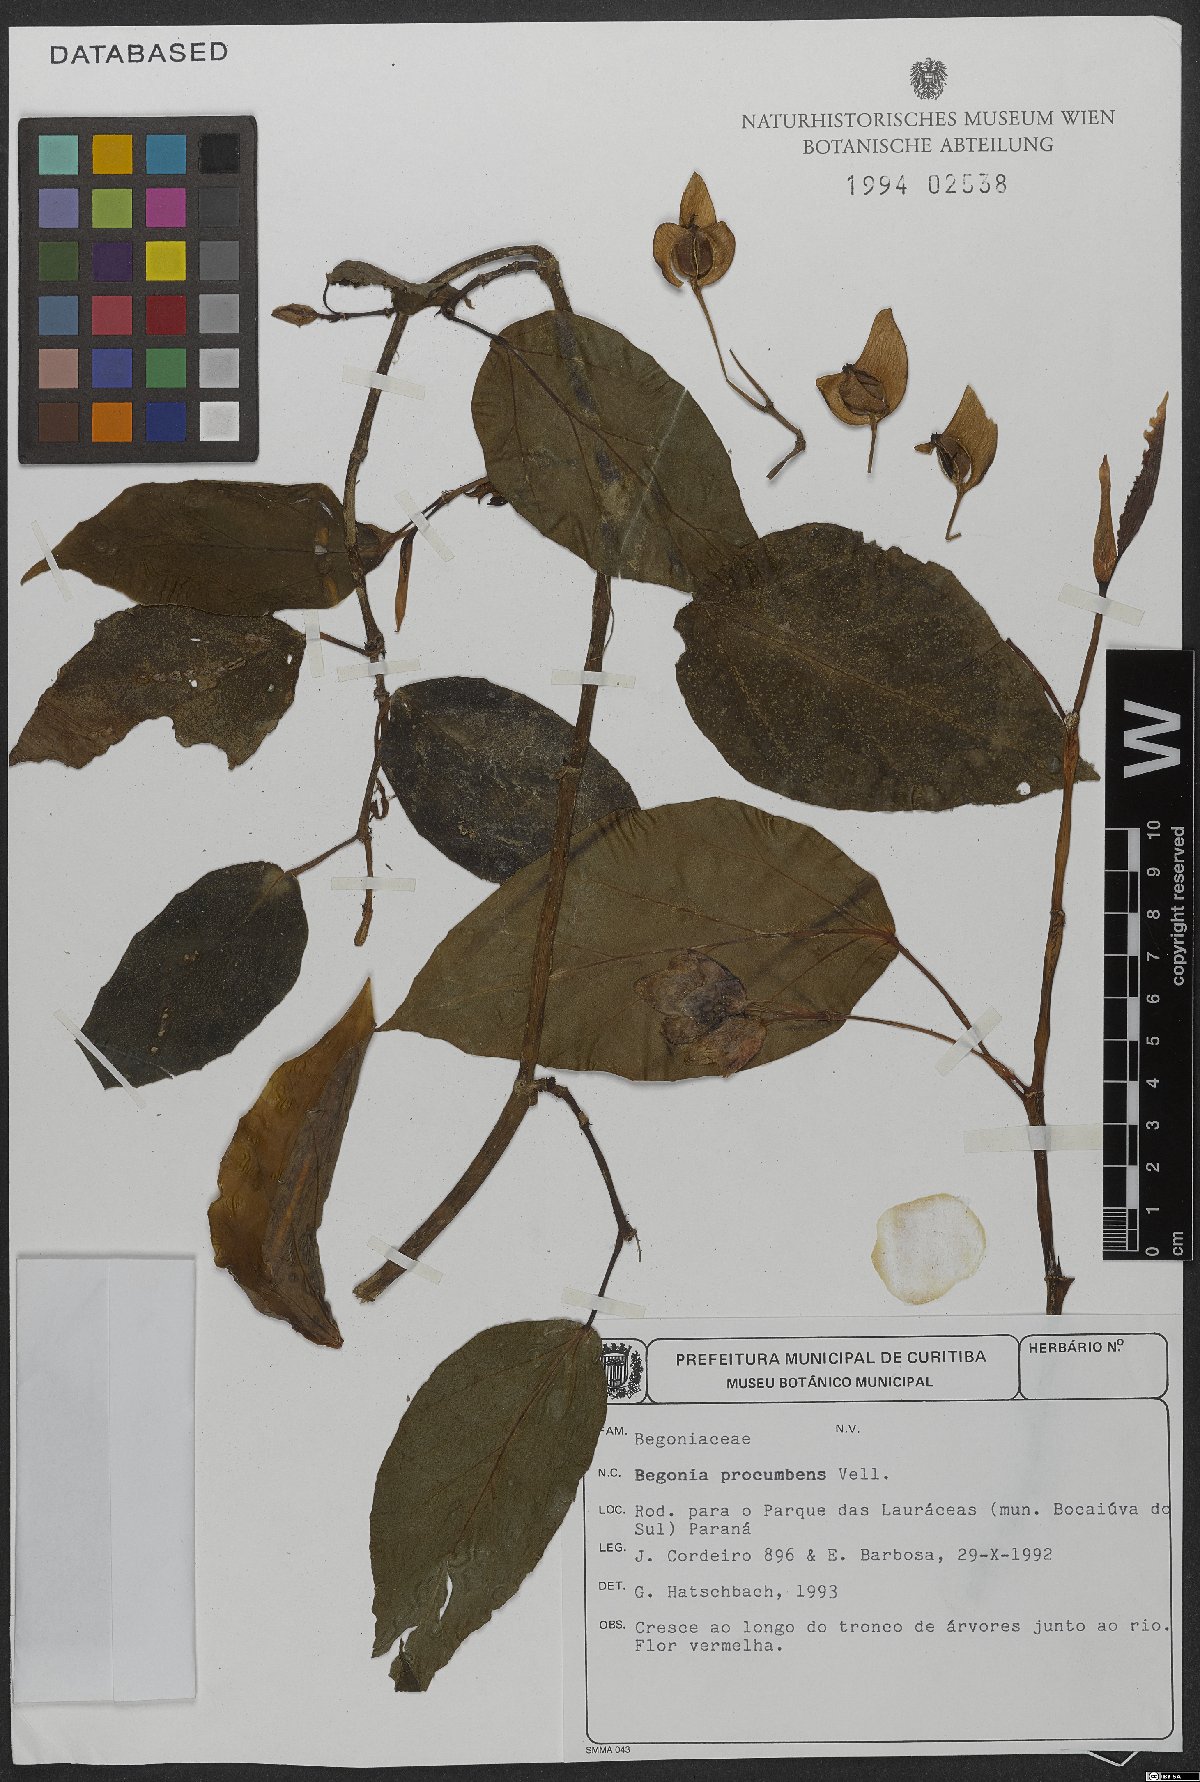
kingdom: Plantae
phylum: Tracheophyta
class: Magnoliopsida
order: Cucurbitales
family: Begoniaceae
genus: Begonia
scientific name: Begonia radicans
